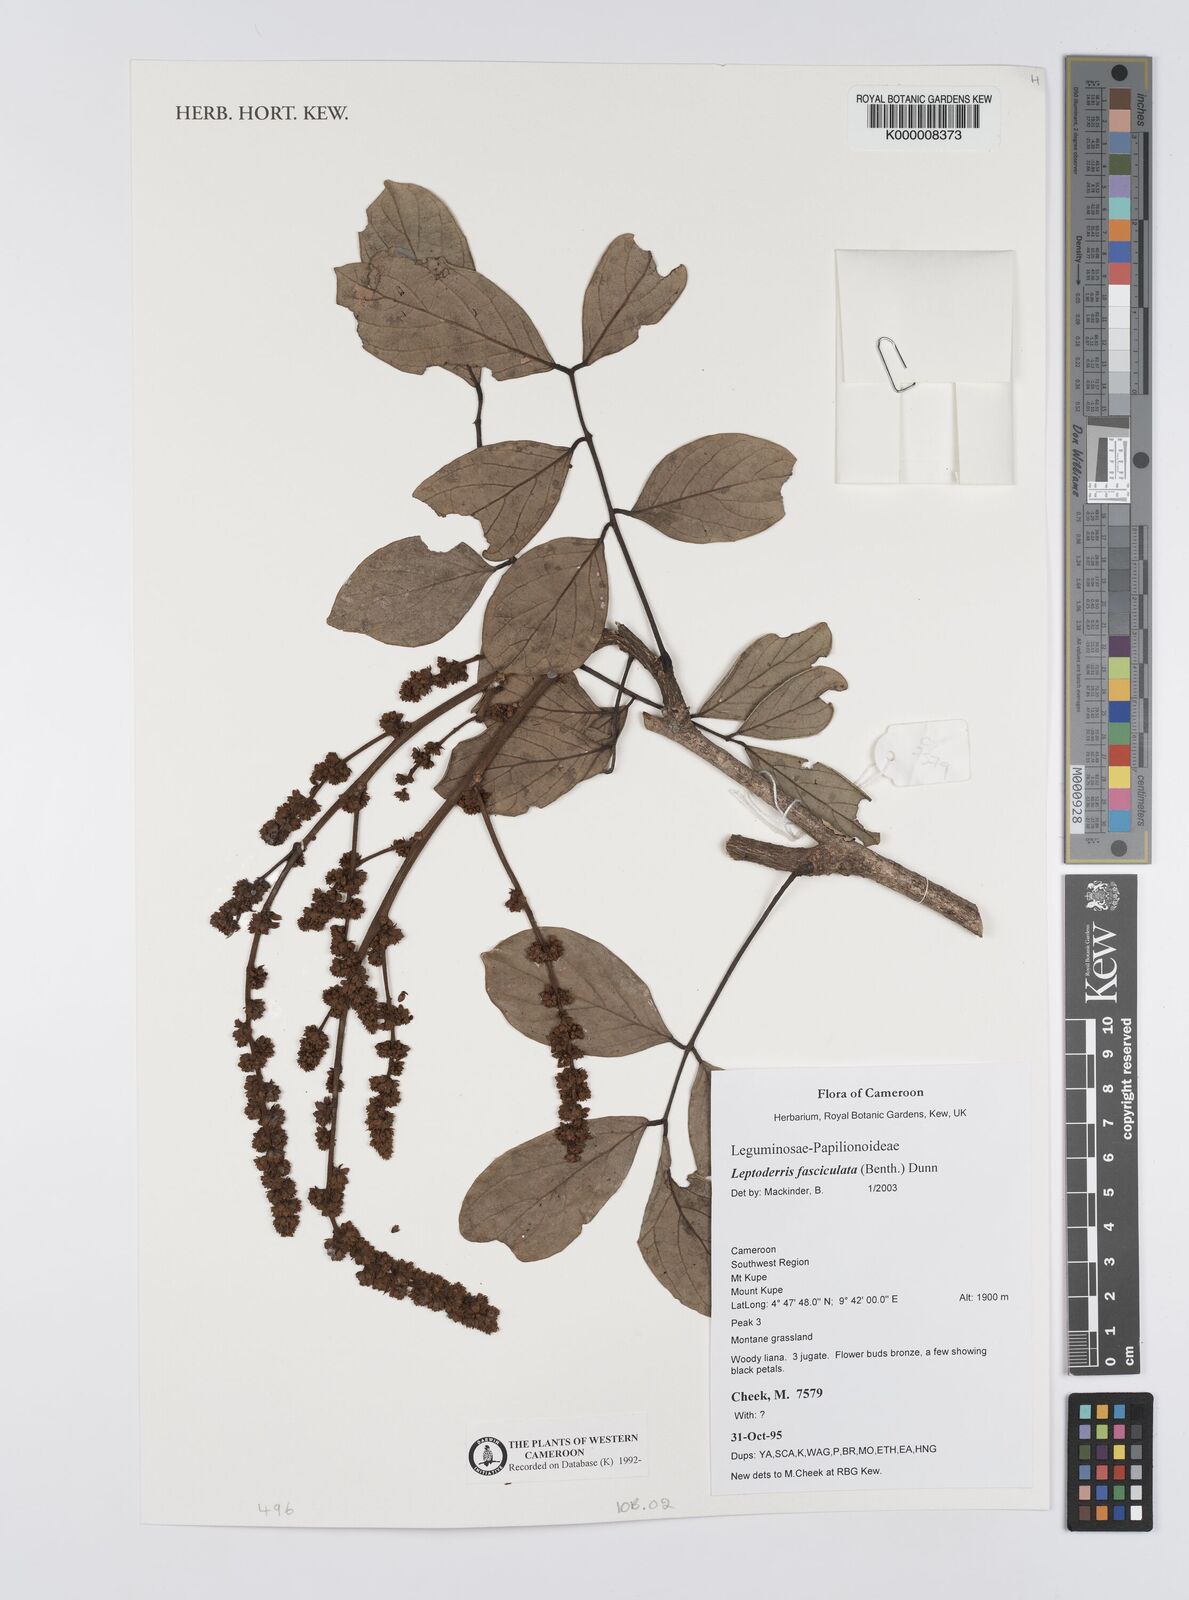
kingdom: Plantae
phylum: Tracheophyta
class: Magnoliopsida
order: Fabales
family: Fabaceae
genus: Leptoderris
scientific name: Leptoderris fasciculata
